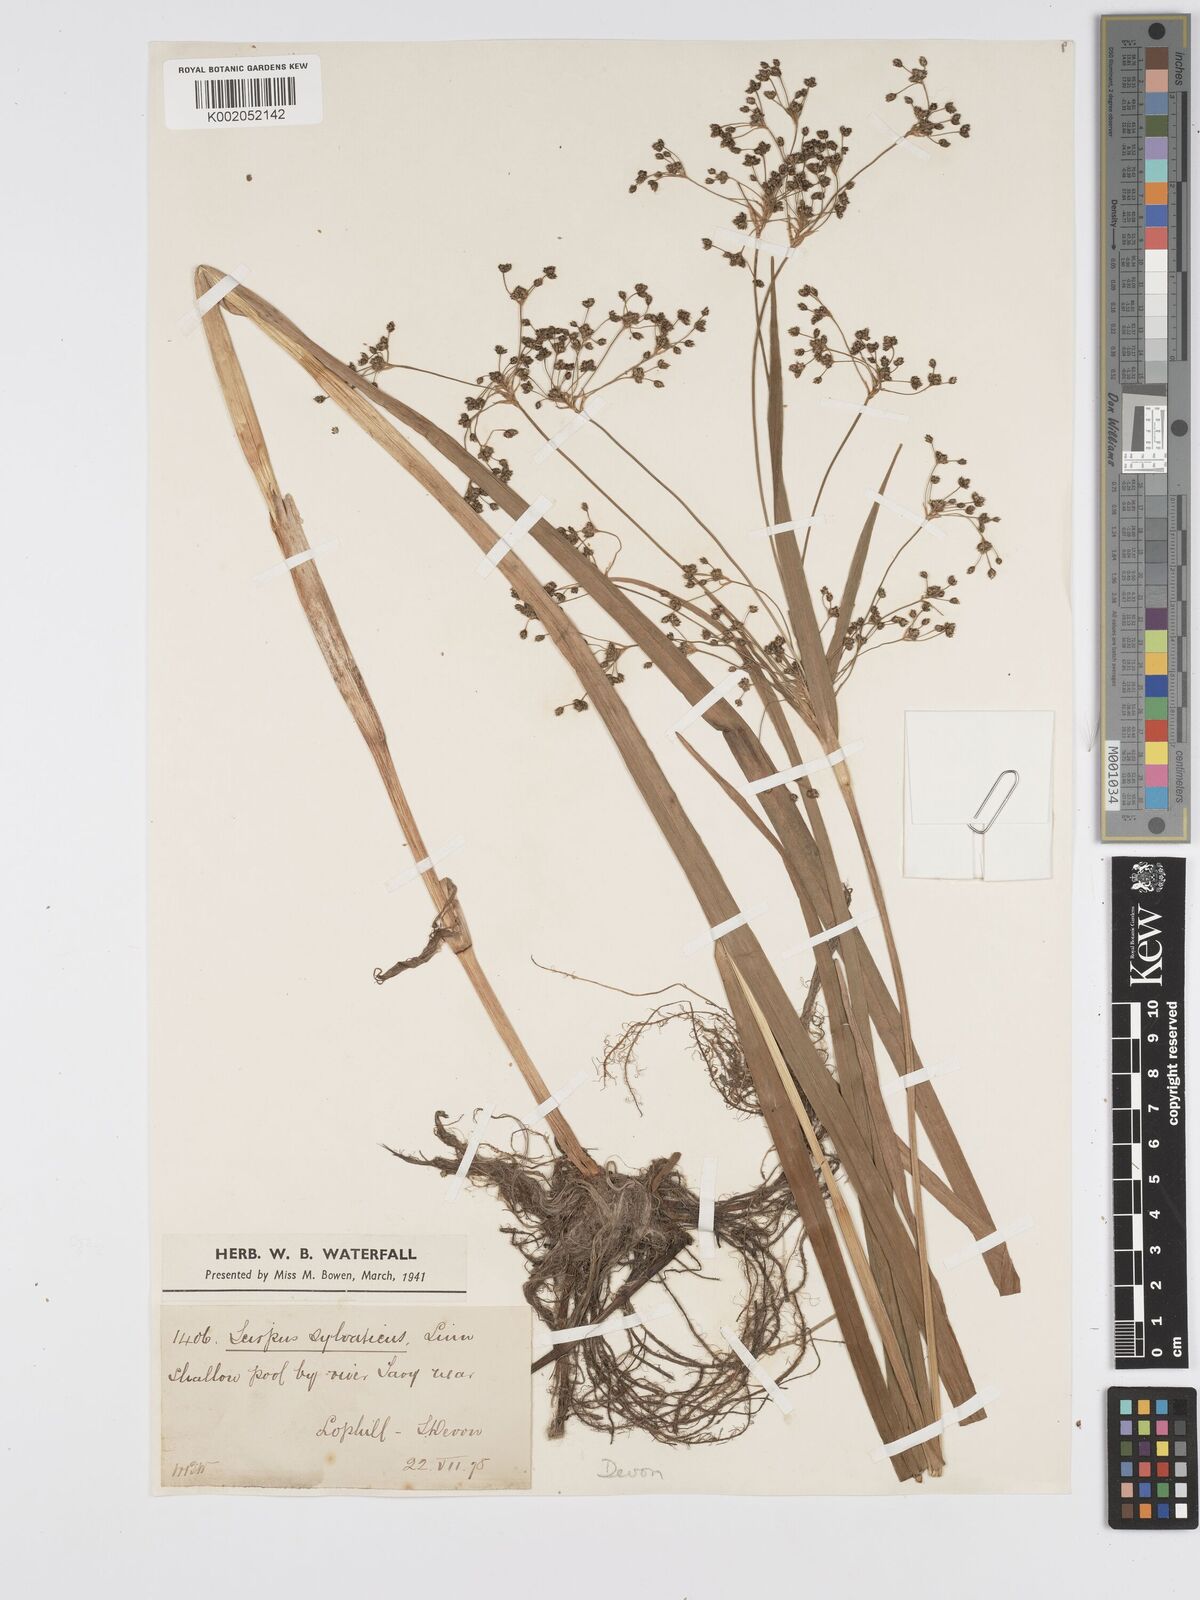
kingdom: Plantae
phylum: Tracheophyta
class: Liliopsida
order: Poales
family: Cyperaceae
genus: Scirpus
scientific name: Scirpus sylvaticus
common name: Wood club-rush
